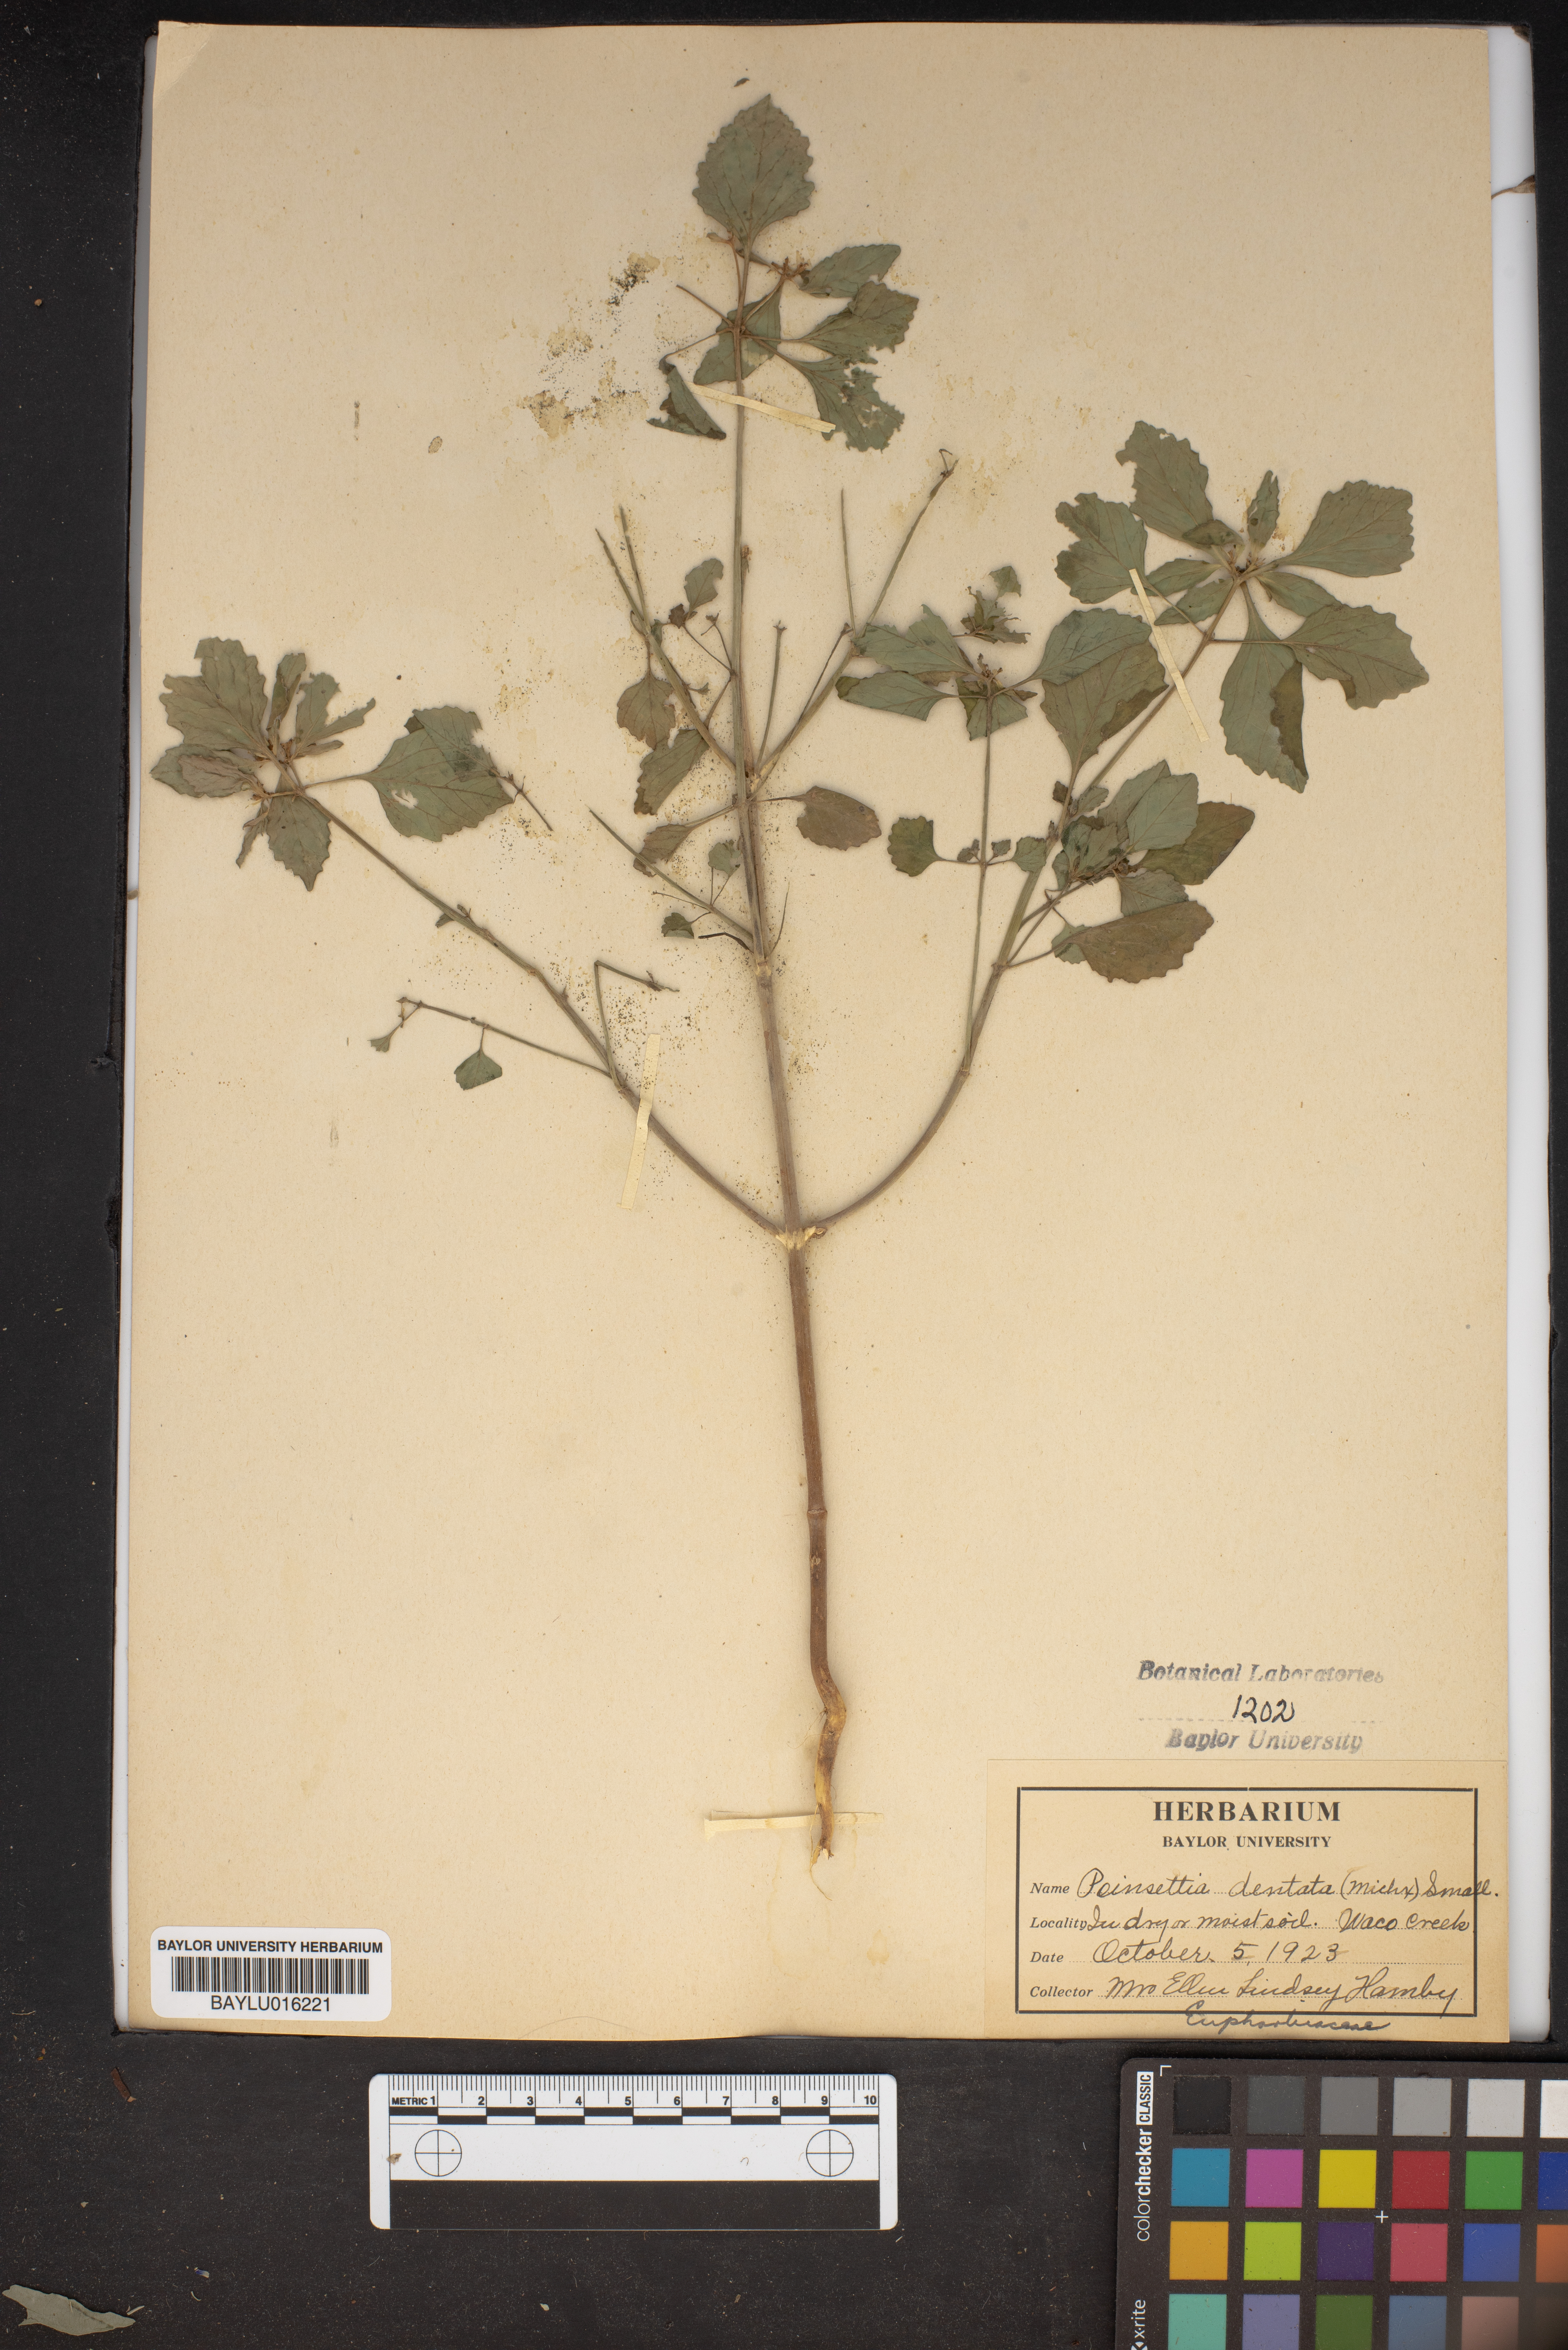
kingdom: Plantae
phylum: Tracheophyta
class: Magnoliopsida
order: Malpighiales
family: Euphorbiaceae
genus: Euphorbia
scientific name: Euphorbia dentata
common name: Dentate spurge
